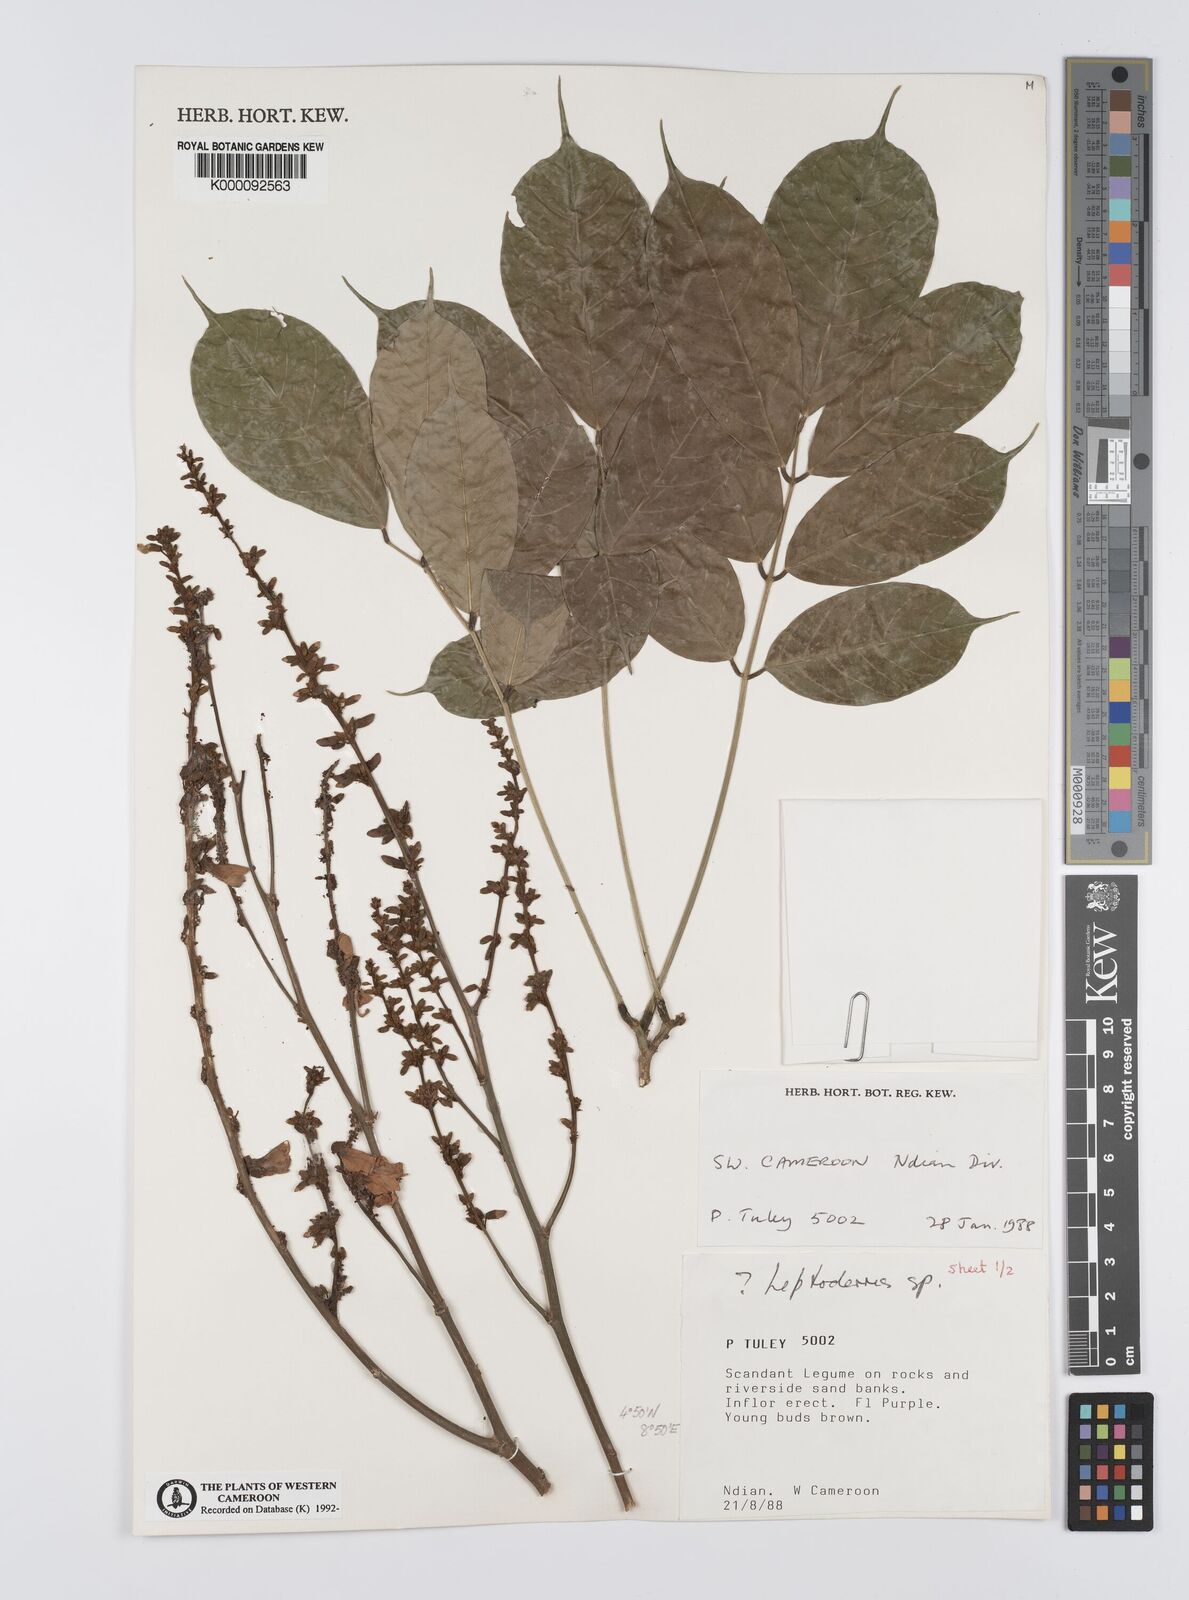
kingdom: Plantae
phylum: Tracheophyta
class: Magnoliopsida
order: Fabales
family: Fabaceae
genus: Leptoderris
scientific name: Leptoderris
